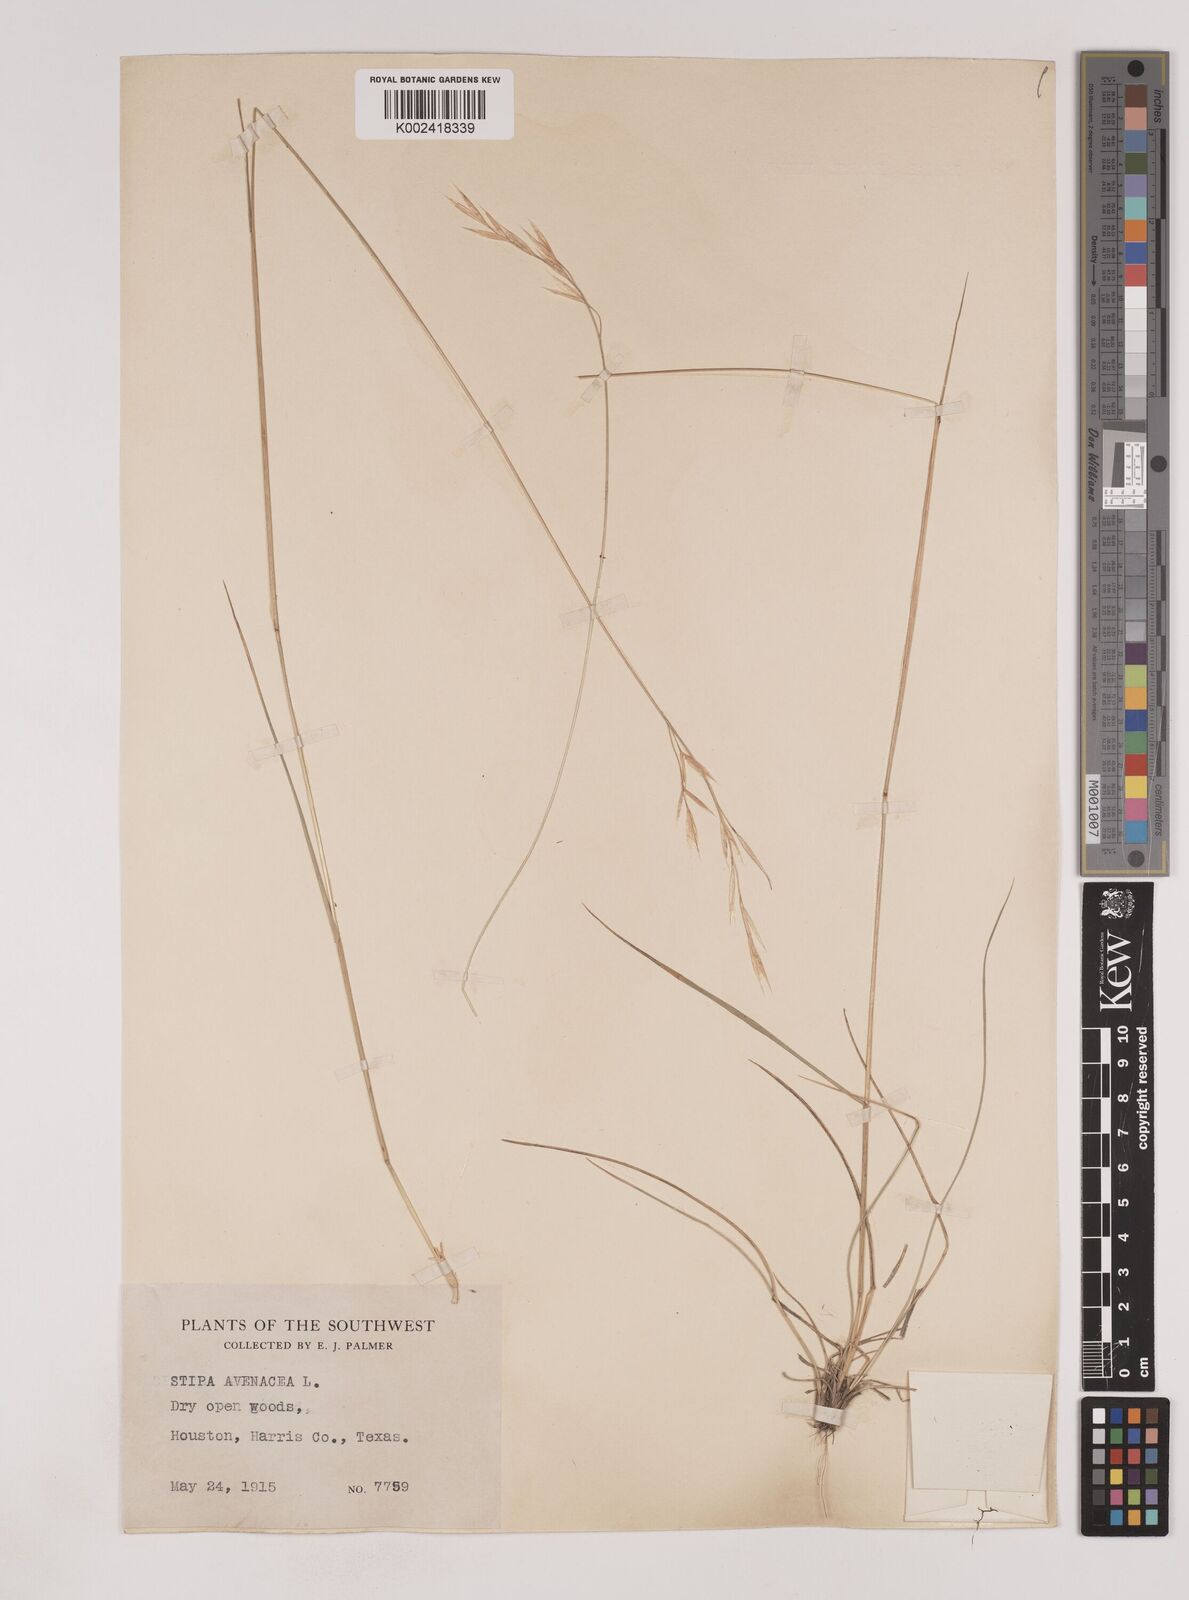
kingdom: Plantae
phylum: Tracheophyta
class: Liliopsida
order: Poales
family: Poaceae
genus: Piptochaetium
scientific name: Piptochaetium avenaceum
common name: Black bunchgrass
